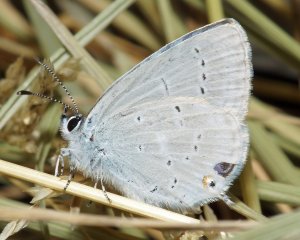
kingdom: Animalia
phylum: Arthropoda
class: Insecta
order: Lepidoptera
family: Lycaenidae
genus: Elkalyce
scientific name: Elkalyce amyntula
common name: Western Tailed-Blue
